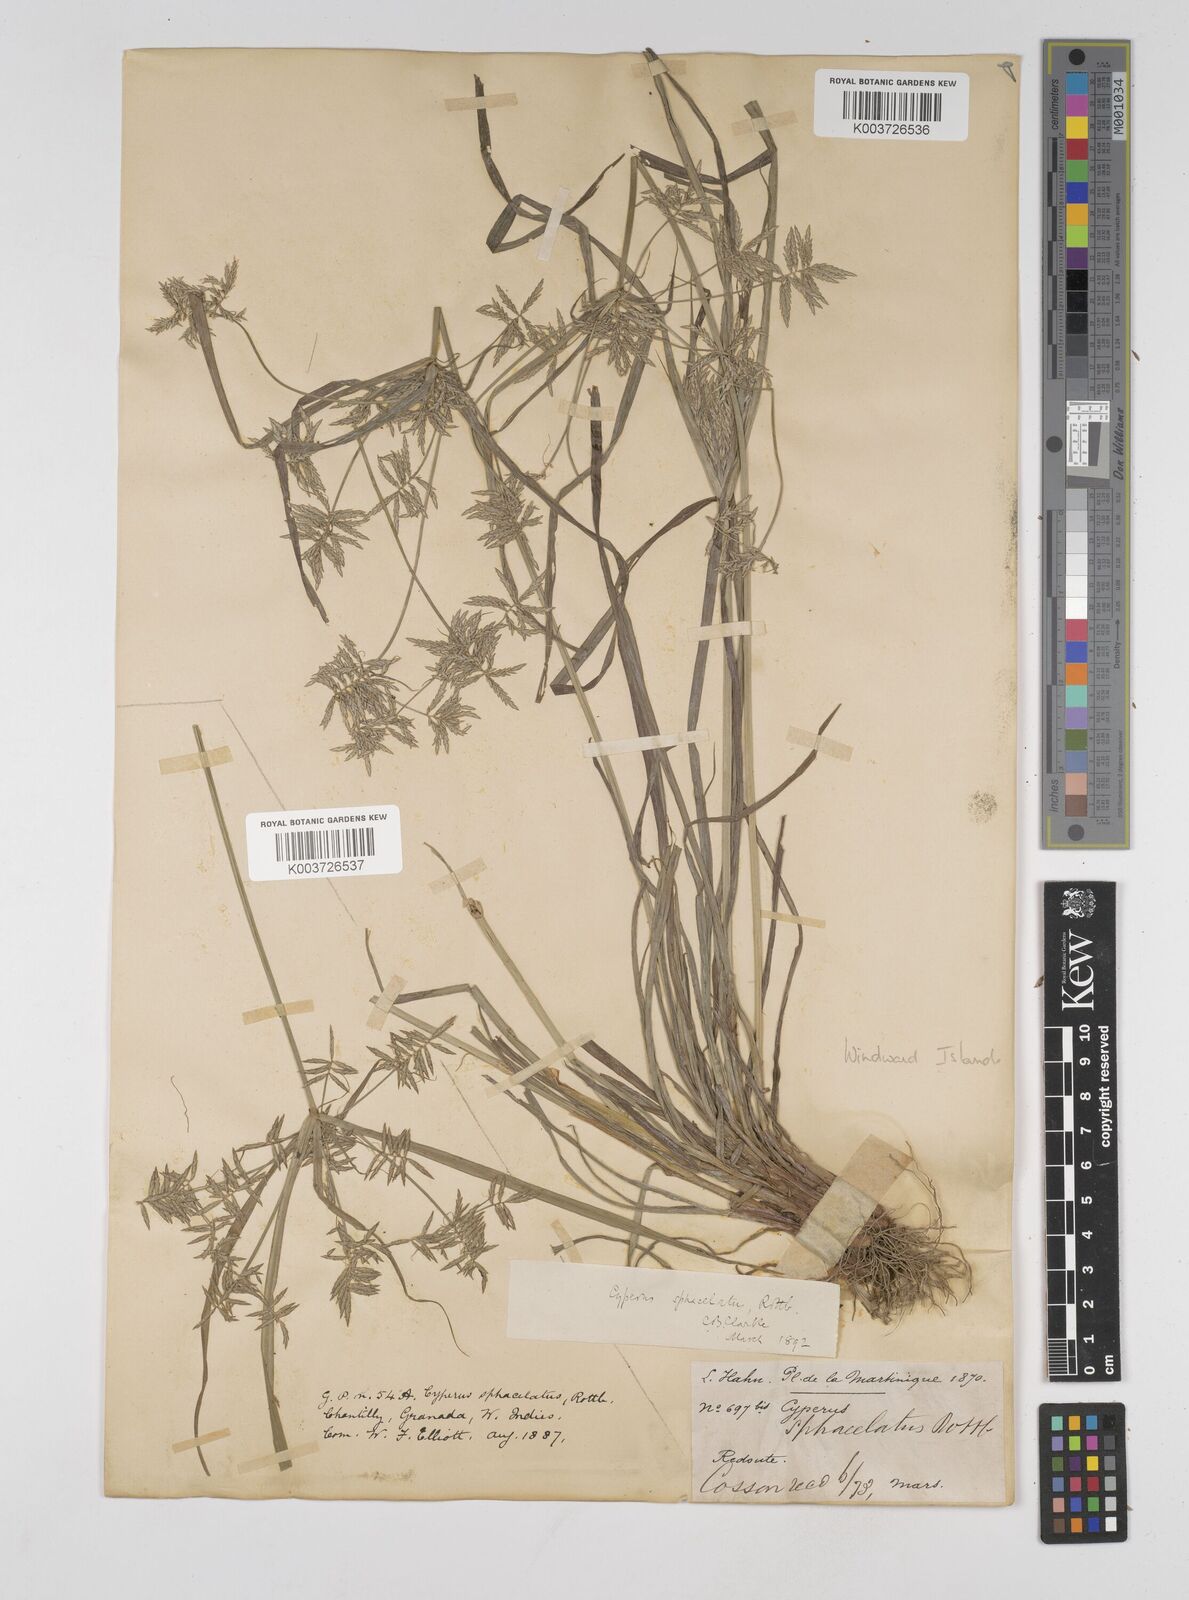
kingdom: Plantae
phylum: Tracheophyta
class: Liliopsida
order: Poales
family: Cyperaceae
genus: Cyperus
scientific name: Cyperus sphacelatus
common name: Roadside flatsedge
